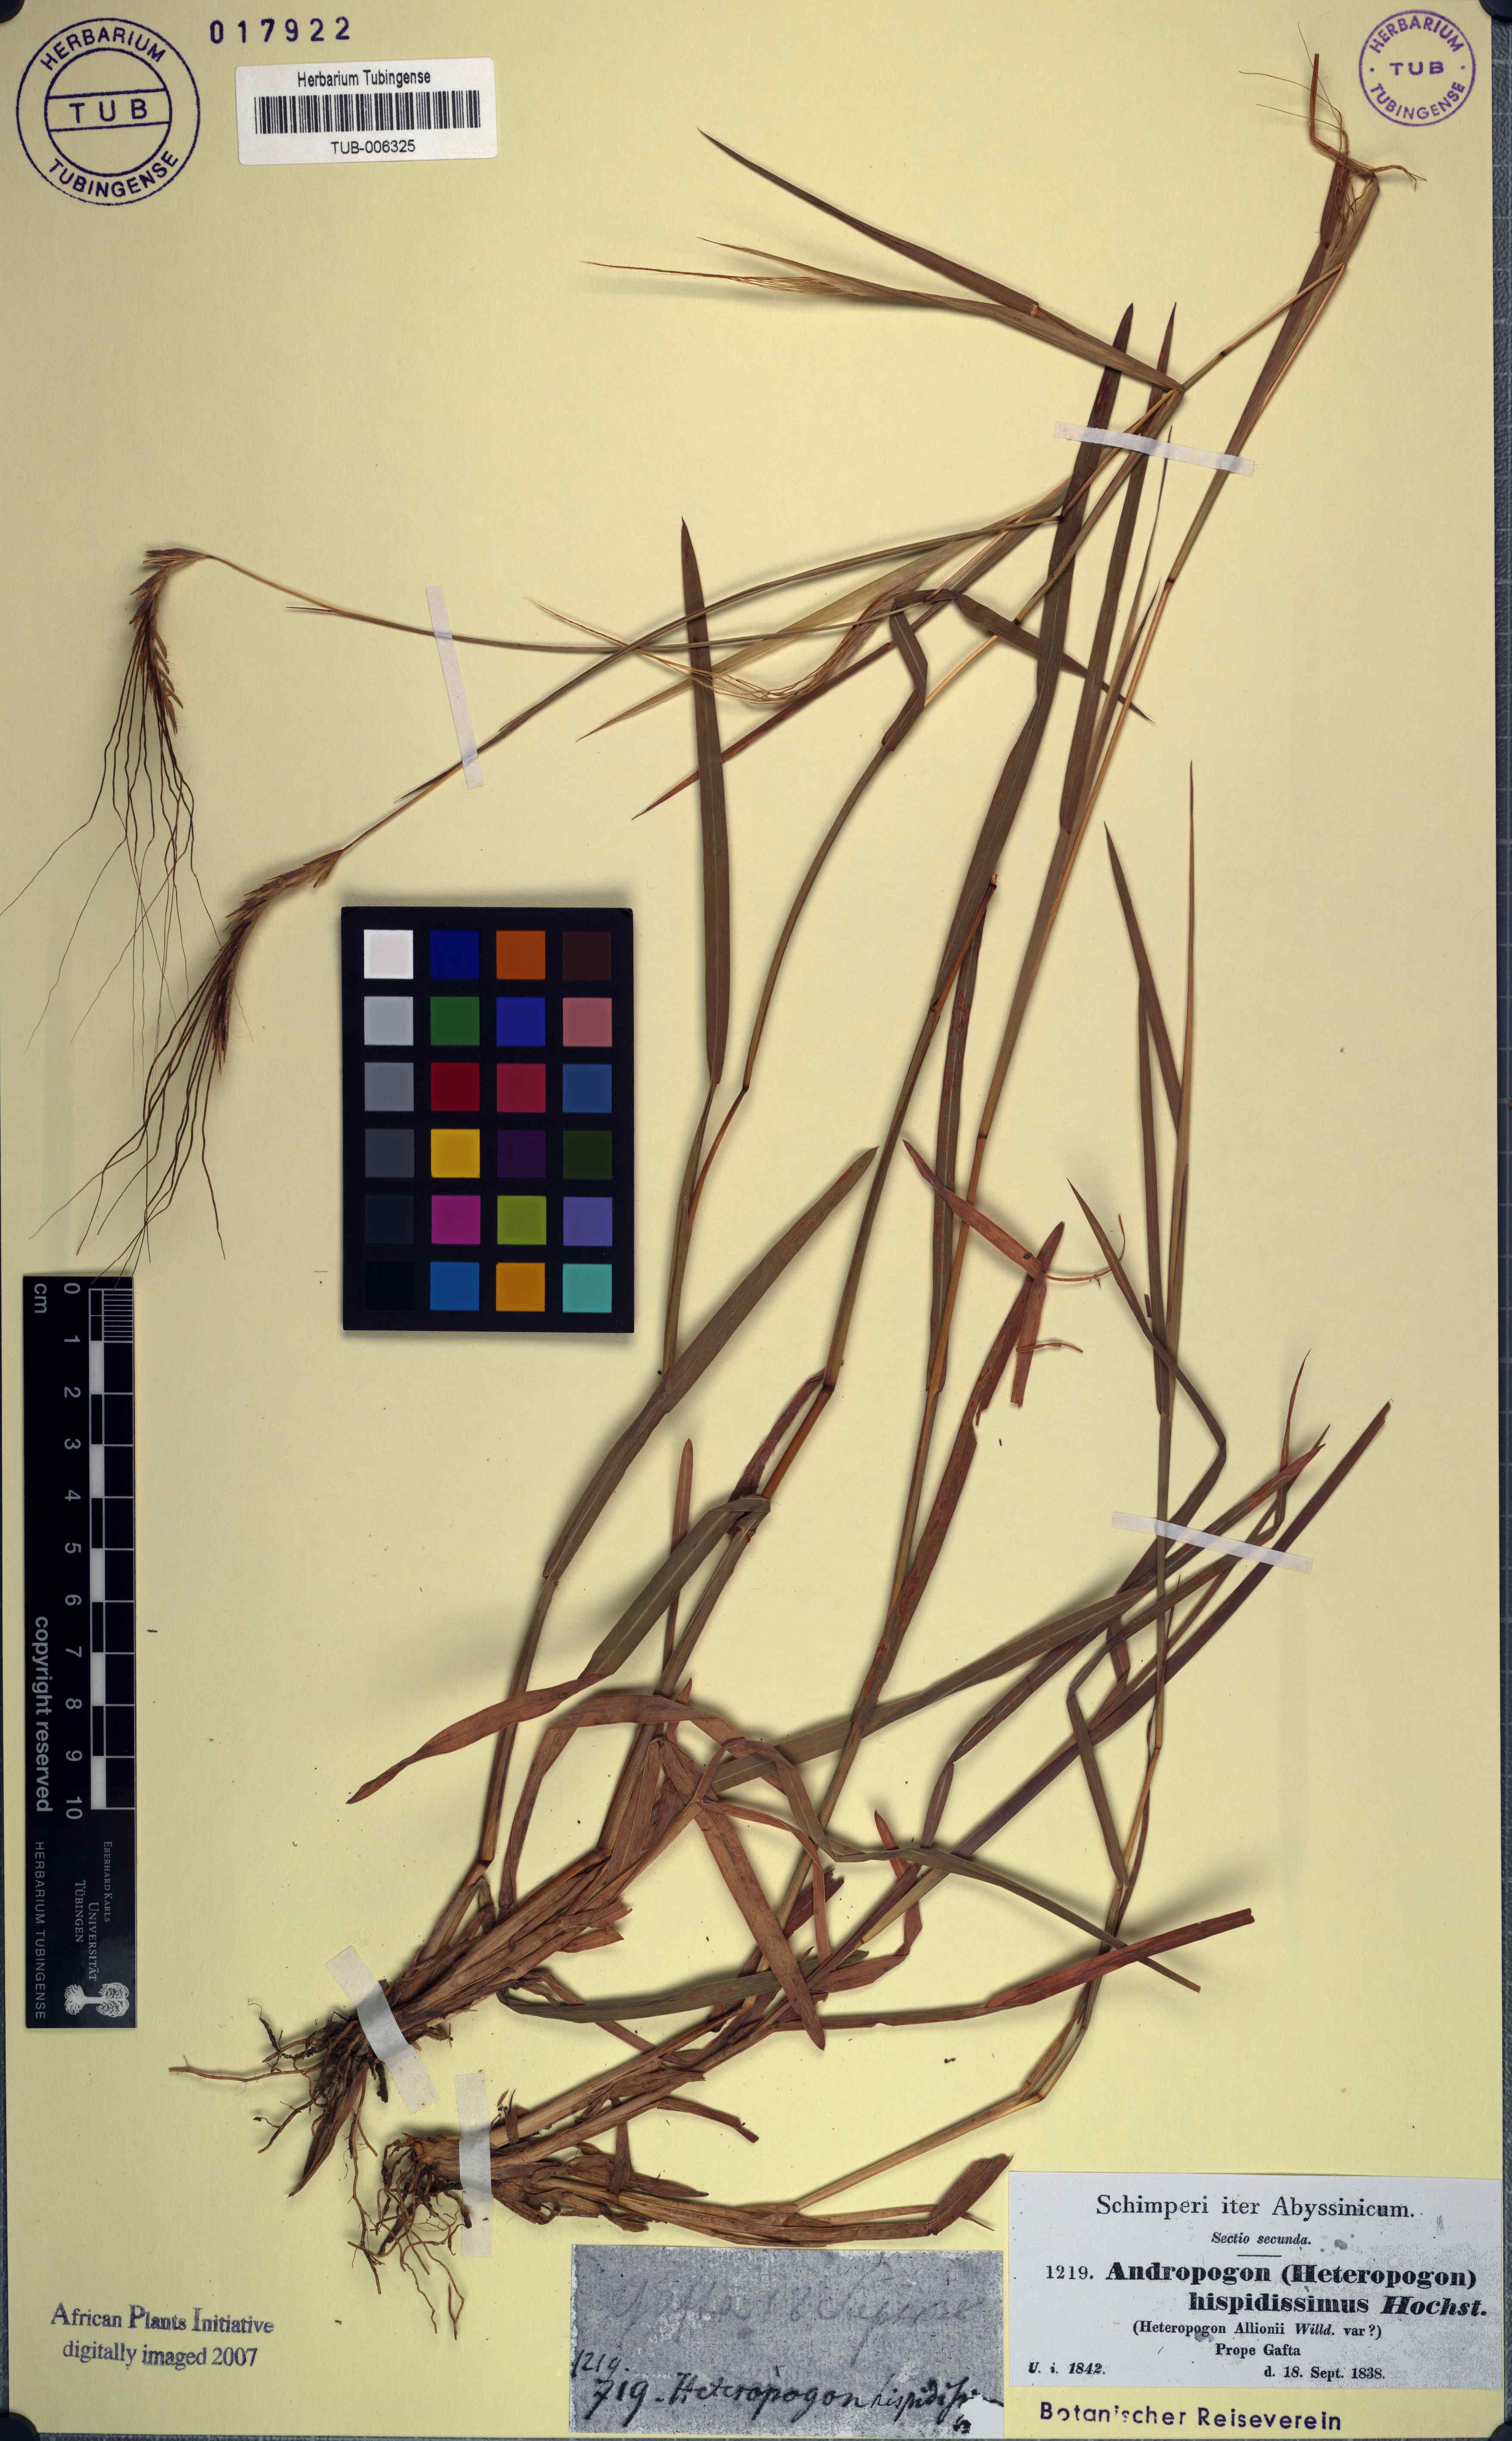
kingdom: Plantae
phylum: Tracheophyta
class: Liliopsida
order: Poales
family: Poaceae
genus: Heteropogon
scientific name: Heteropogon contortus
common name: Tanglehead
